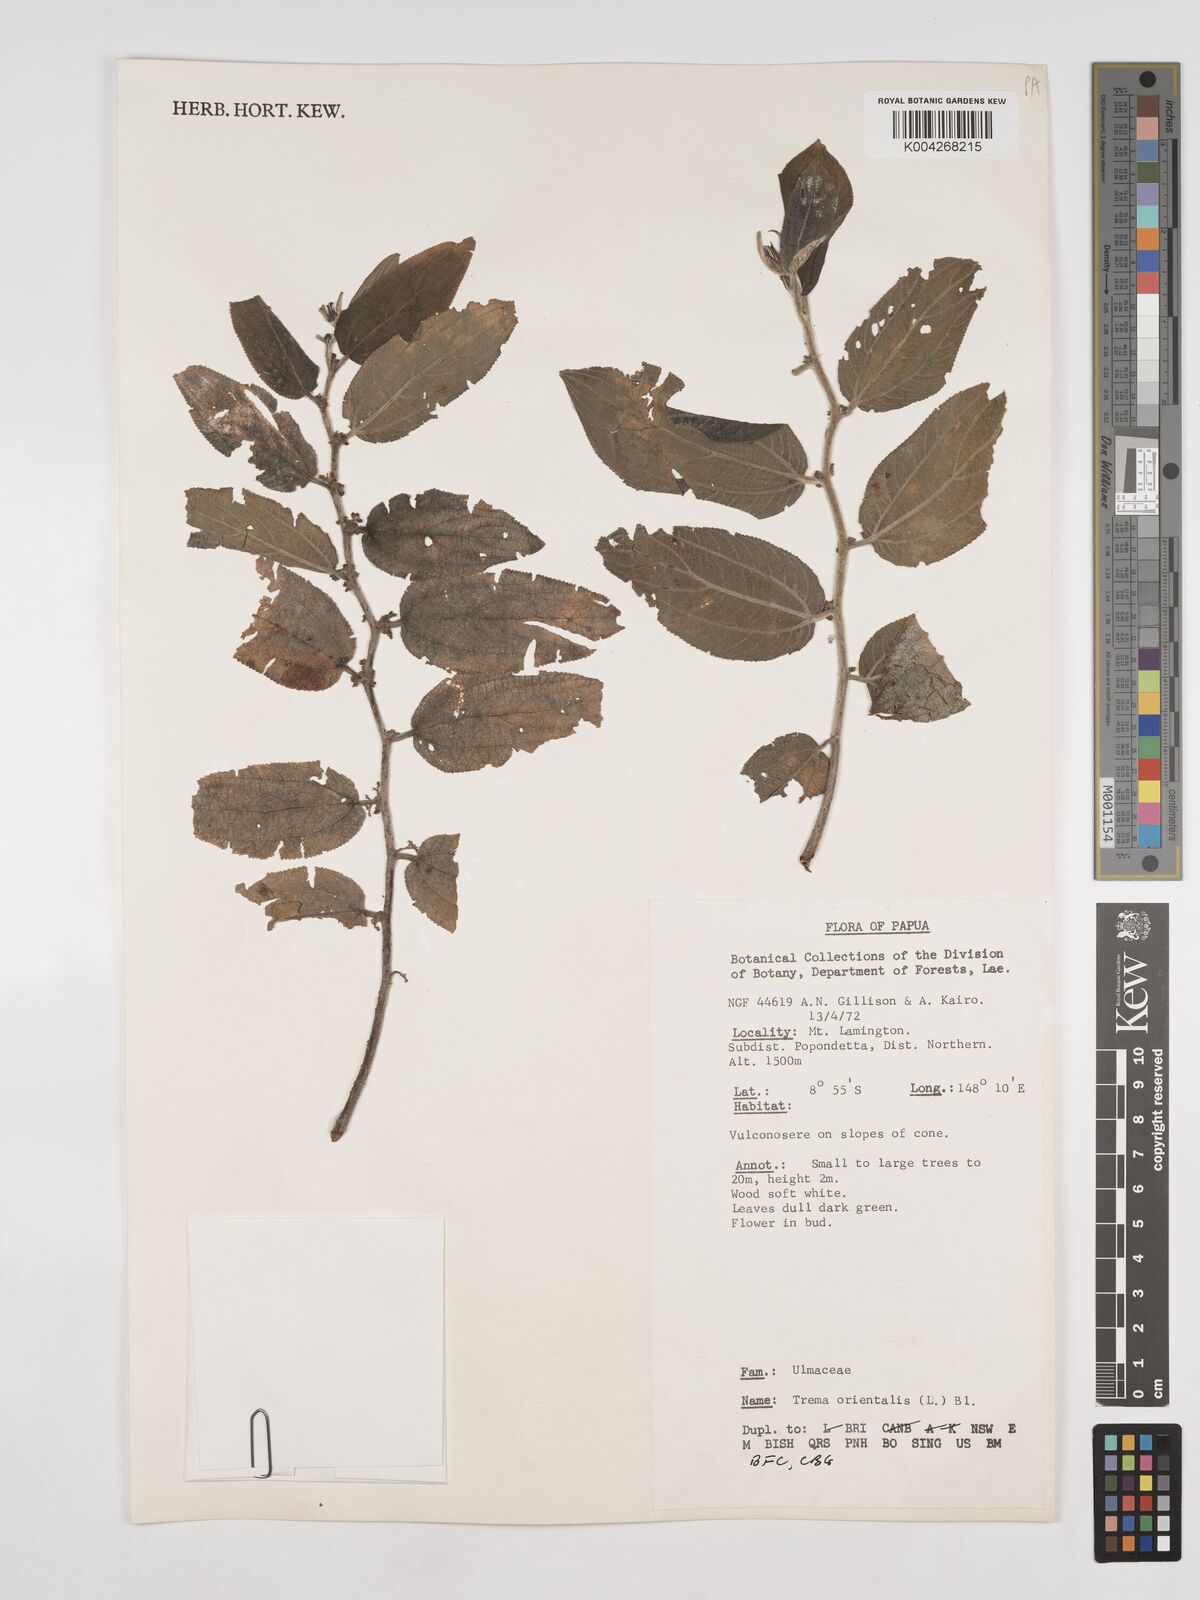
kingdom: Plantae
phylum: Tracheophyta
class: Magnoliopsida
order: Rosales
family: Cannabaceae
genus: Trema
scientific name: Trema orientale
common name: Indian charcoal tree
